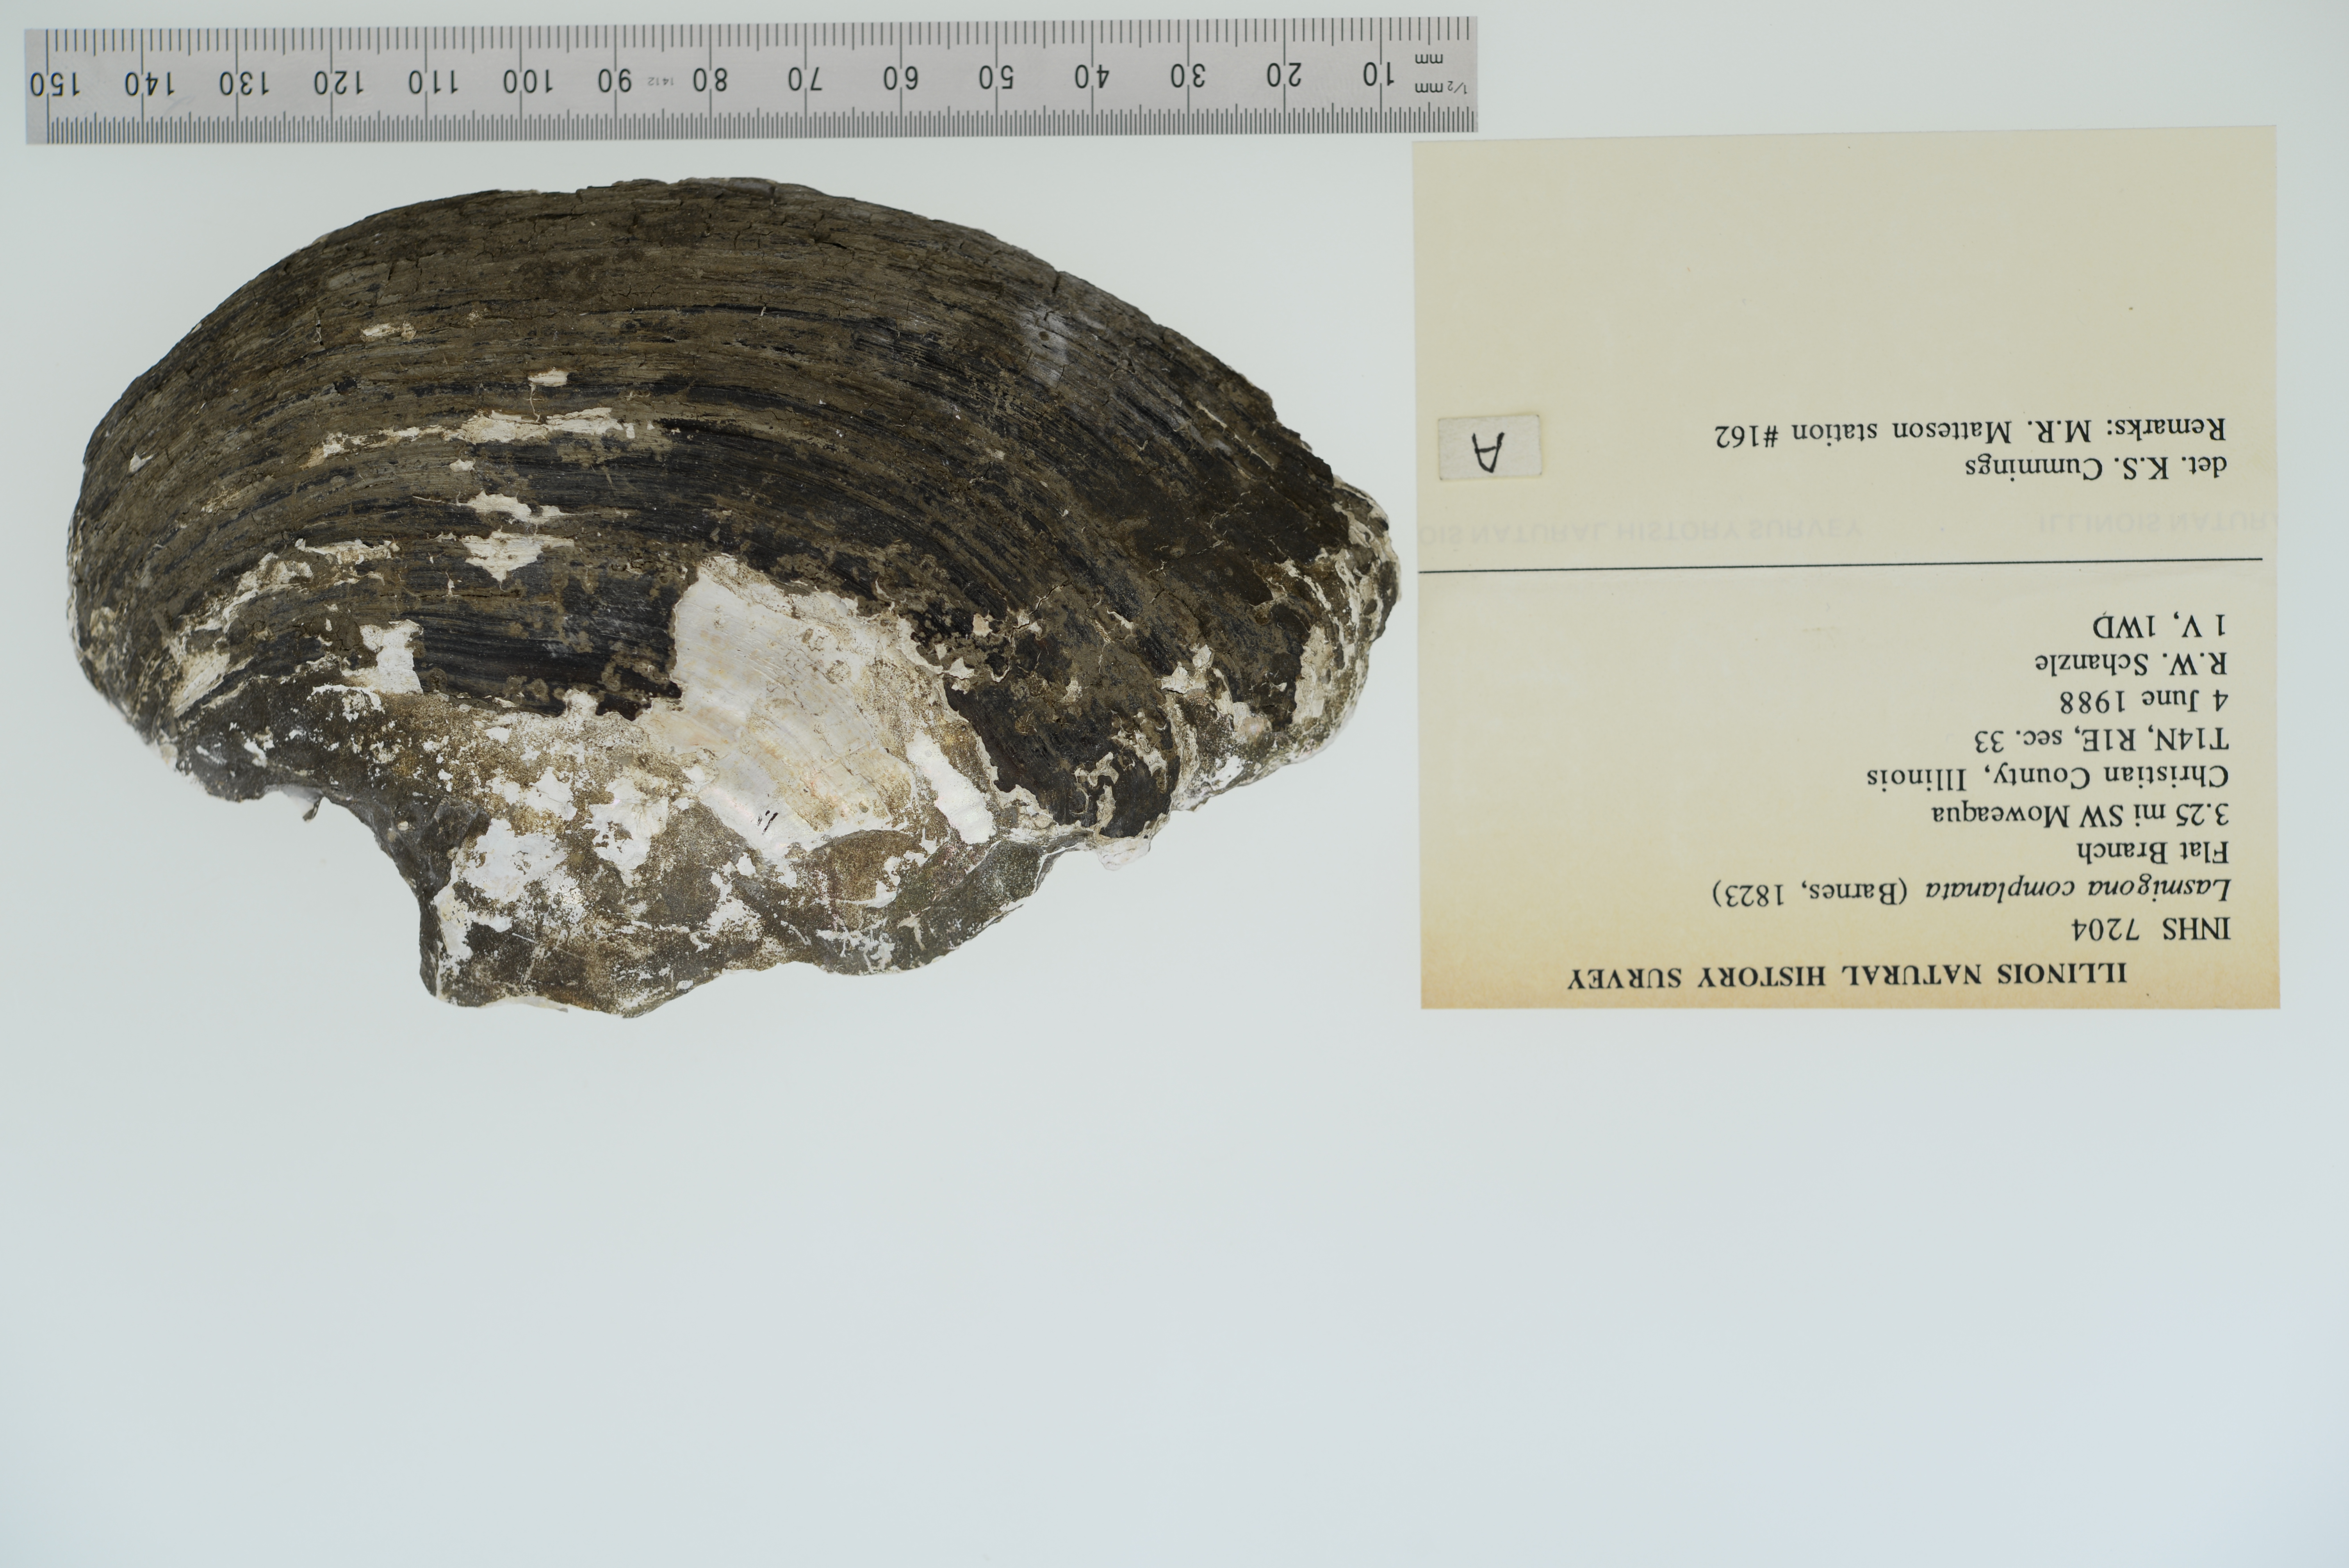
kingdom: Animalia
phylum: Mollusca
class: Bivalvia
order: Unionida
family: Unionidae
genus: Lasmigona
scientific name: Lasmigona complanata
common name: White heelsplitter
